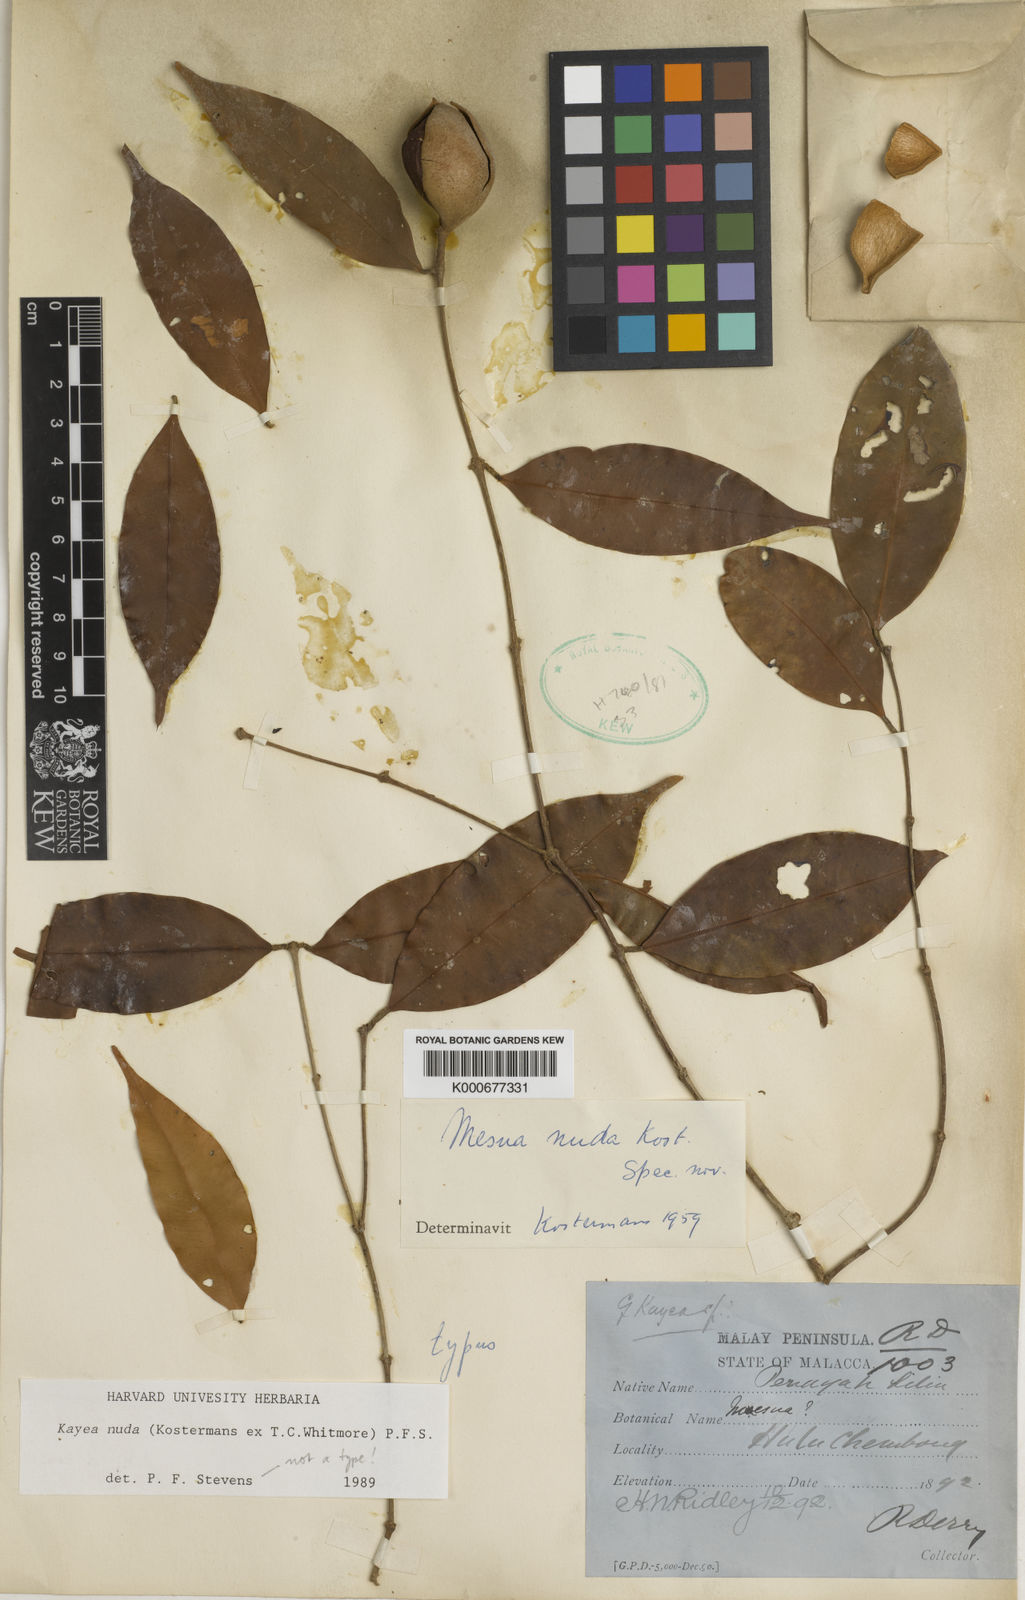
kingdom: Plantae
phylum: Tracheophyta
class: Magnoliopsida
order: Malpighiales
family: Calophyllaceae
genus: Kayea
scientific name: Kayea
